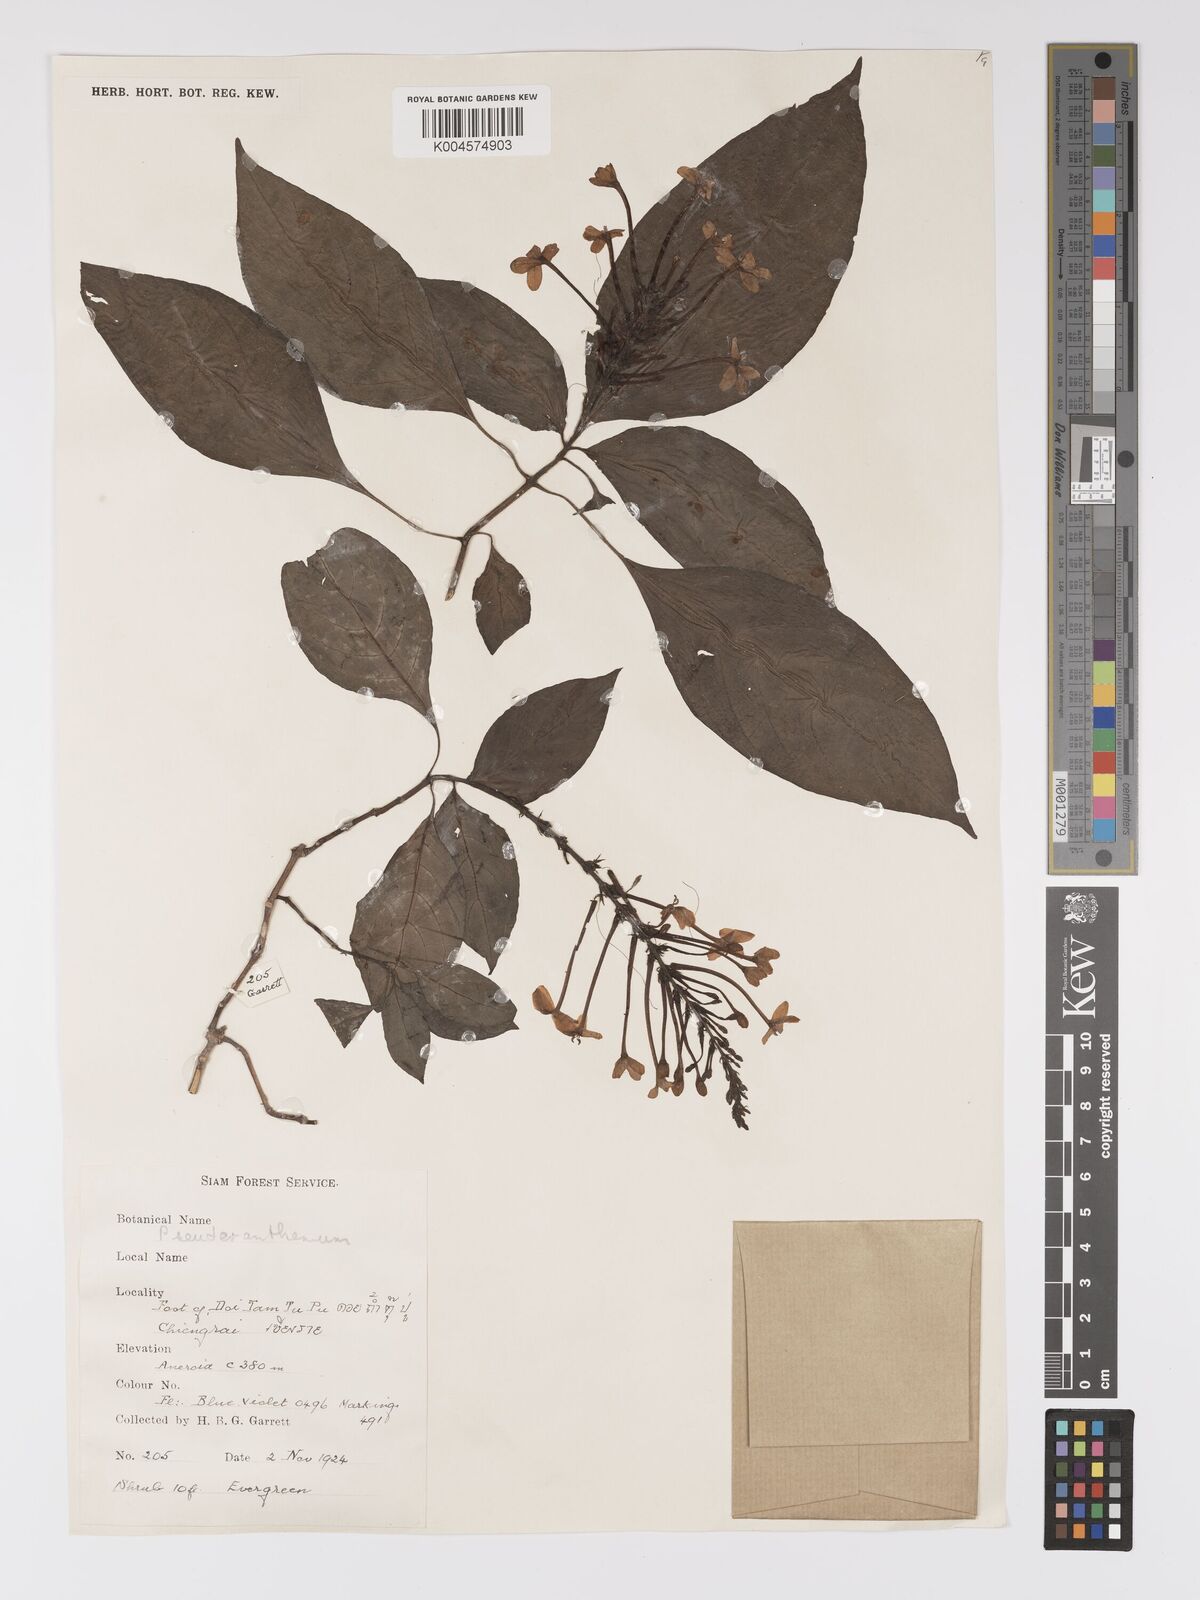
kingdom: Plantae
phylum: Tracheophyta
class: Magnoliopsida
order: Lamiales
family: Acanthaceae
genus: Pseuderanthemum
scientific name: Pseuderanthemum
